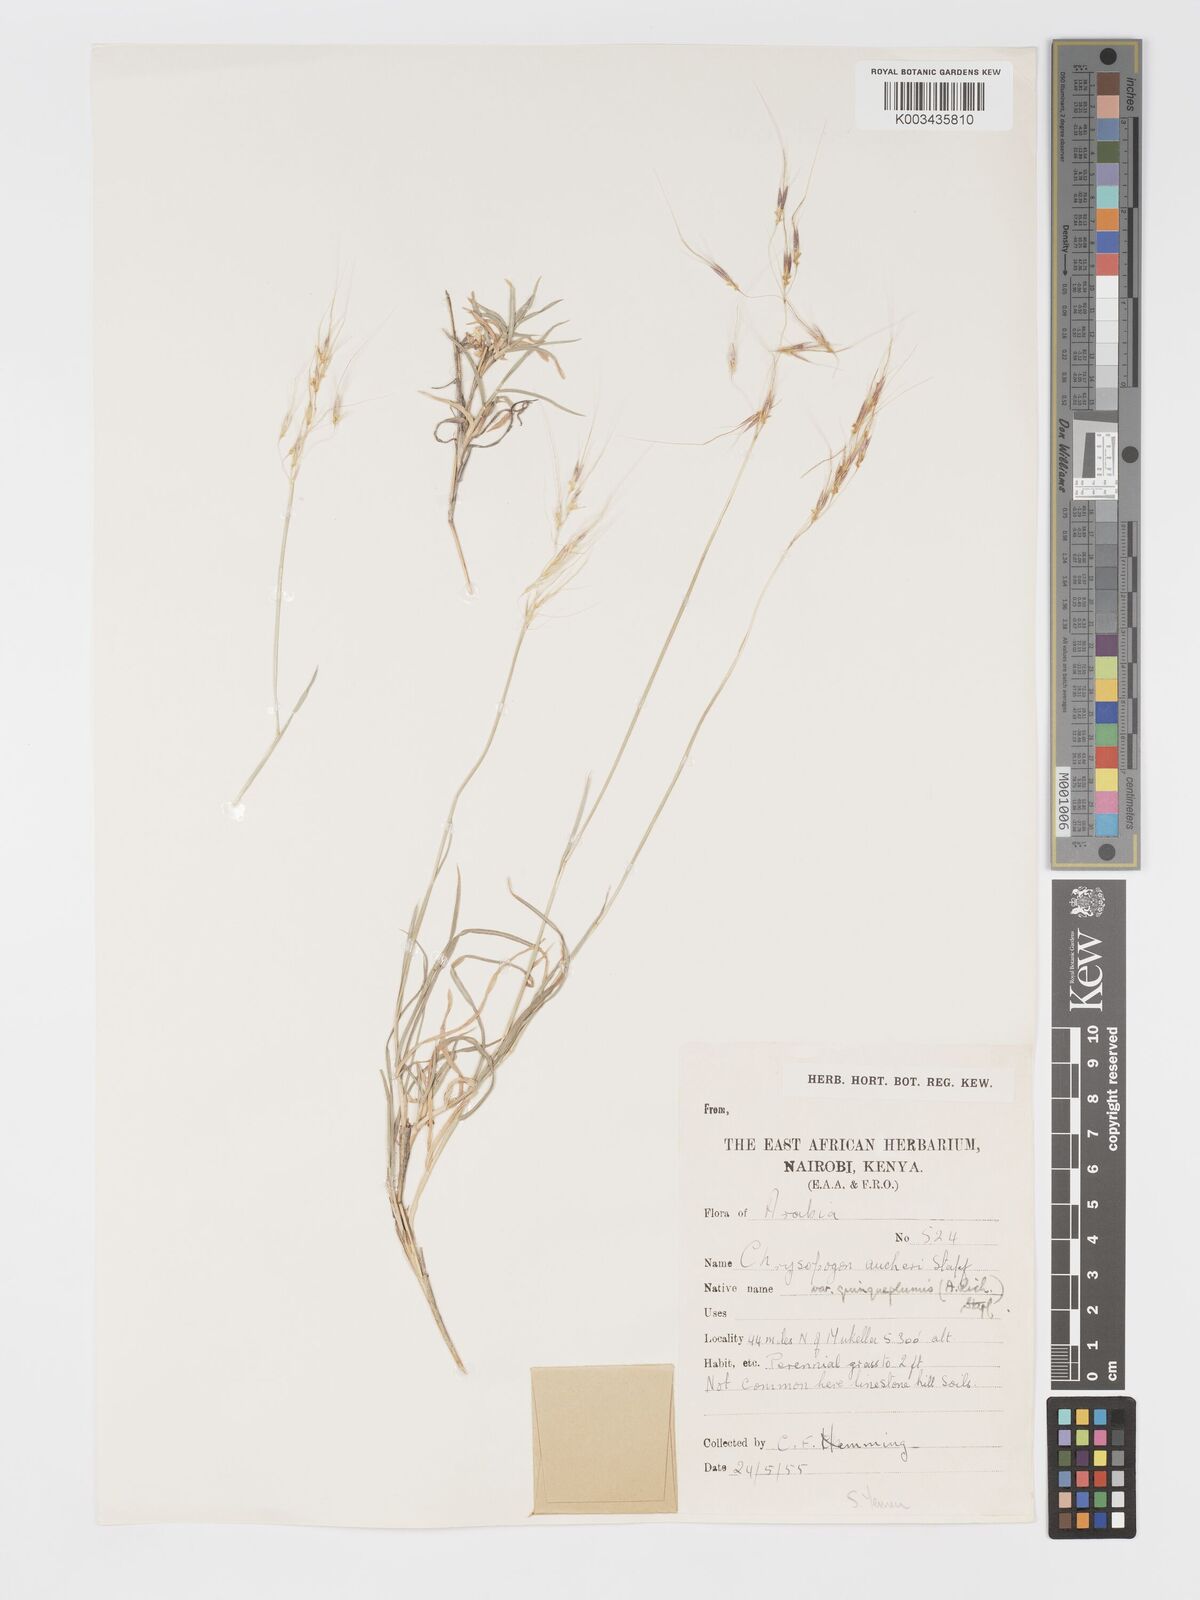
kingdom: Plantae
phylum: Tracheophyta
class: Liliopsida
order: Poales
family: Poaceae
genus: Chrysopogon
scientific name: Chrysopogon plumulosus
